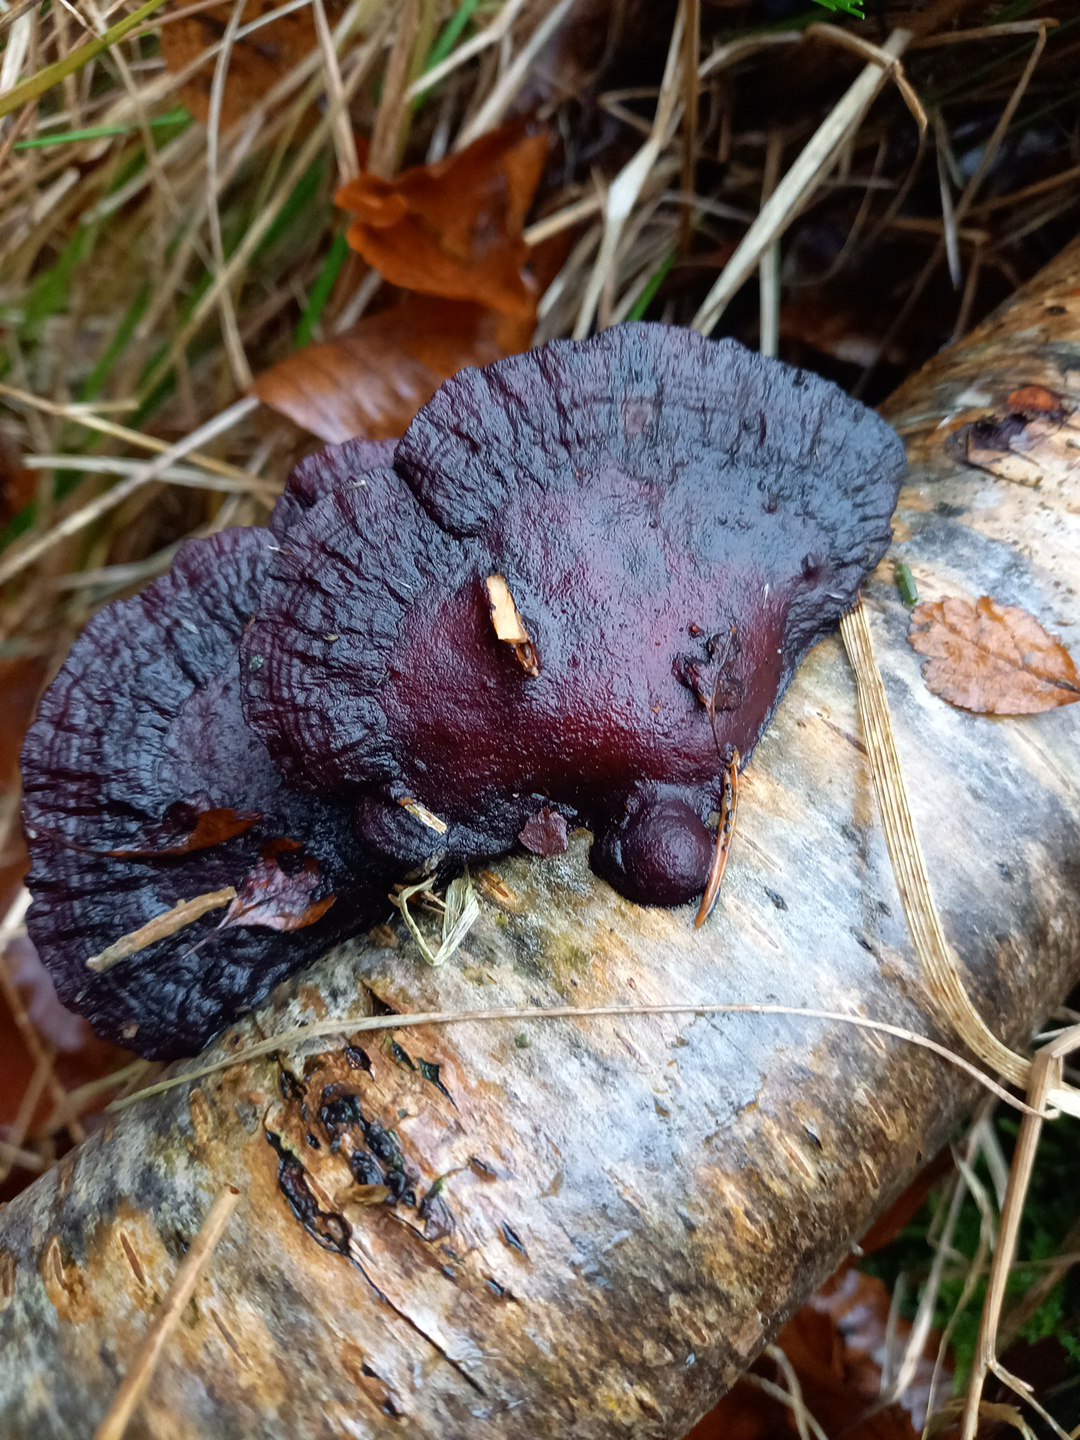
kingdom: Fungi
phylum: Basidiomycota
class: Agaricomycetes
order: Polyporales
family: Polyporaceae
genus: Daedaleopsis
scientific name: Daedaleopsis confragosa
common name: rødmende læderporesvamp
